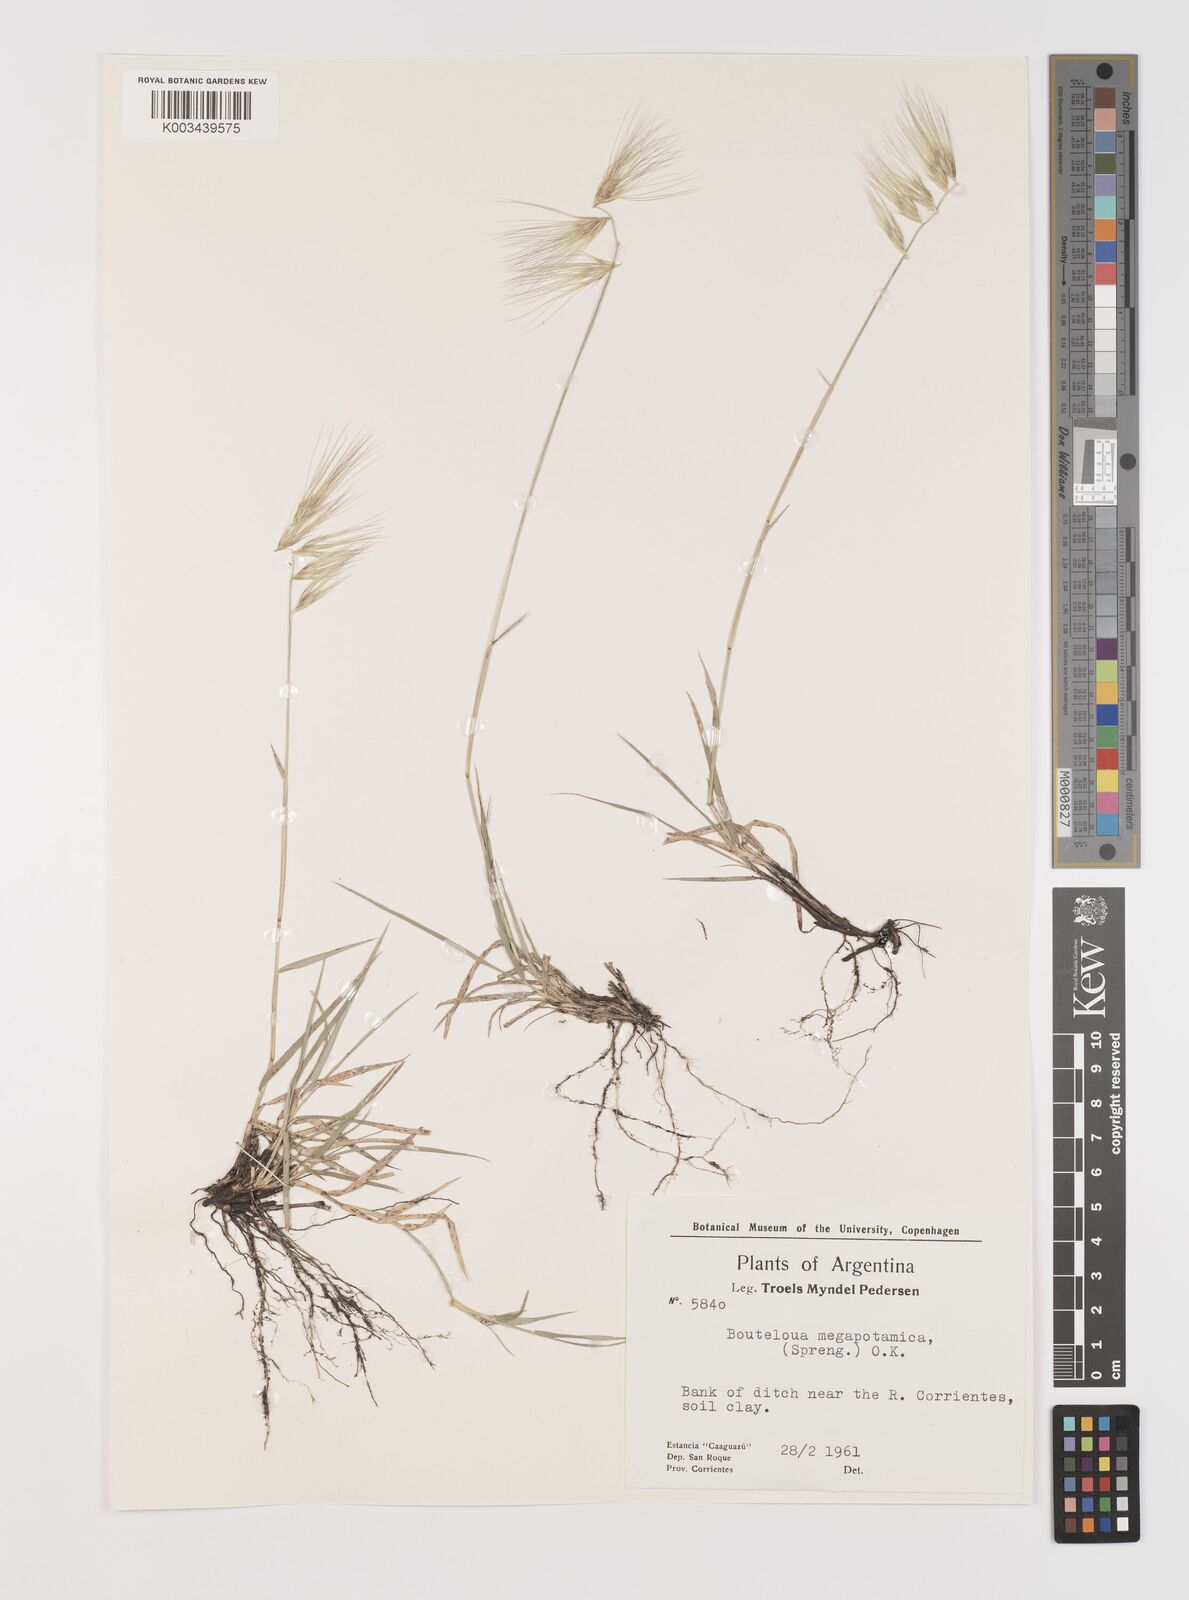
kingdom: Plantae
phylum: Tracheophyta
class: Liliopsida
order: Poales
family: Poaceae
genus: Bouteloua
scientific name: Bouteloua megapotamica
